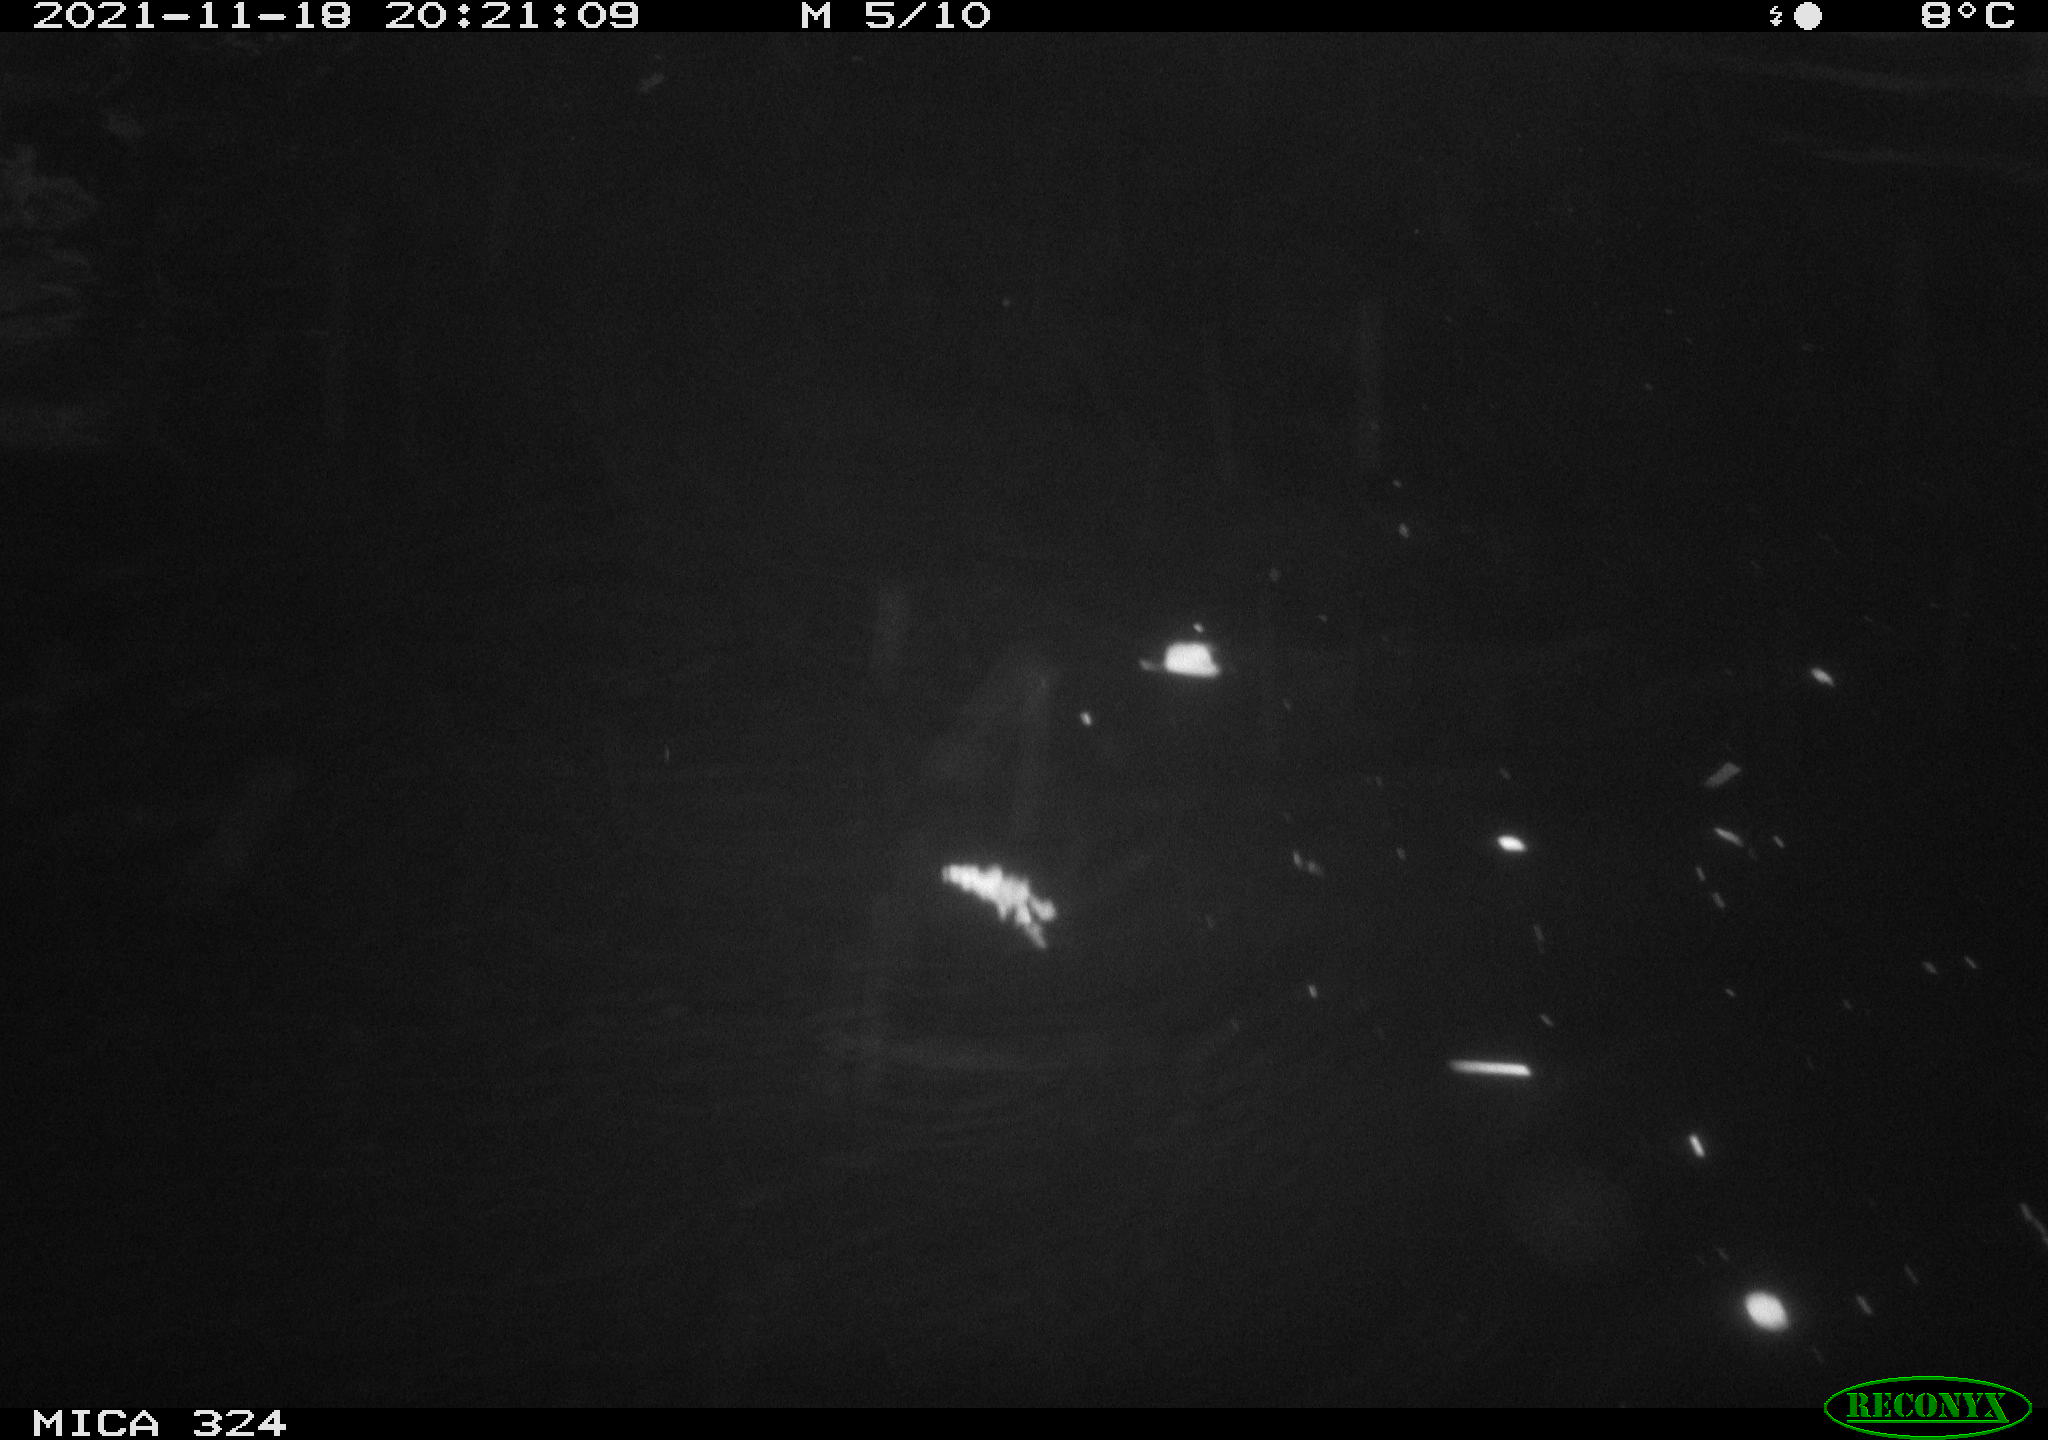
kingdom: Animalia
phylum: Chordata
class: Mammalia
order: Rodentia
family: Cricetidae
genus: Ondatra
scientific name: Ondatra zibethicus
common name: Muskrat
